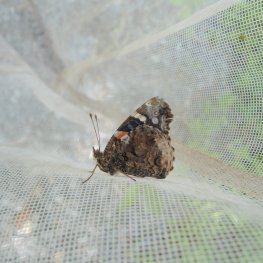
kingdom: Animalia
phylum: Arthropoda
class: Insecta
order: Lepidoptera
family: Nymphalidae
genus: Vanessa
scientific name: Vanessa atalanta
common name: Red Admiral
